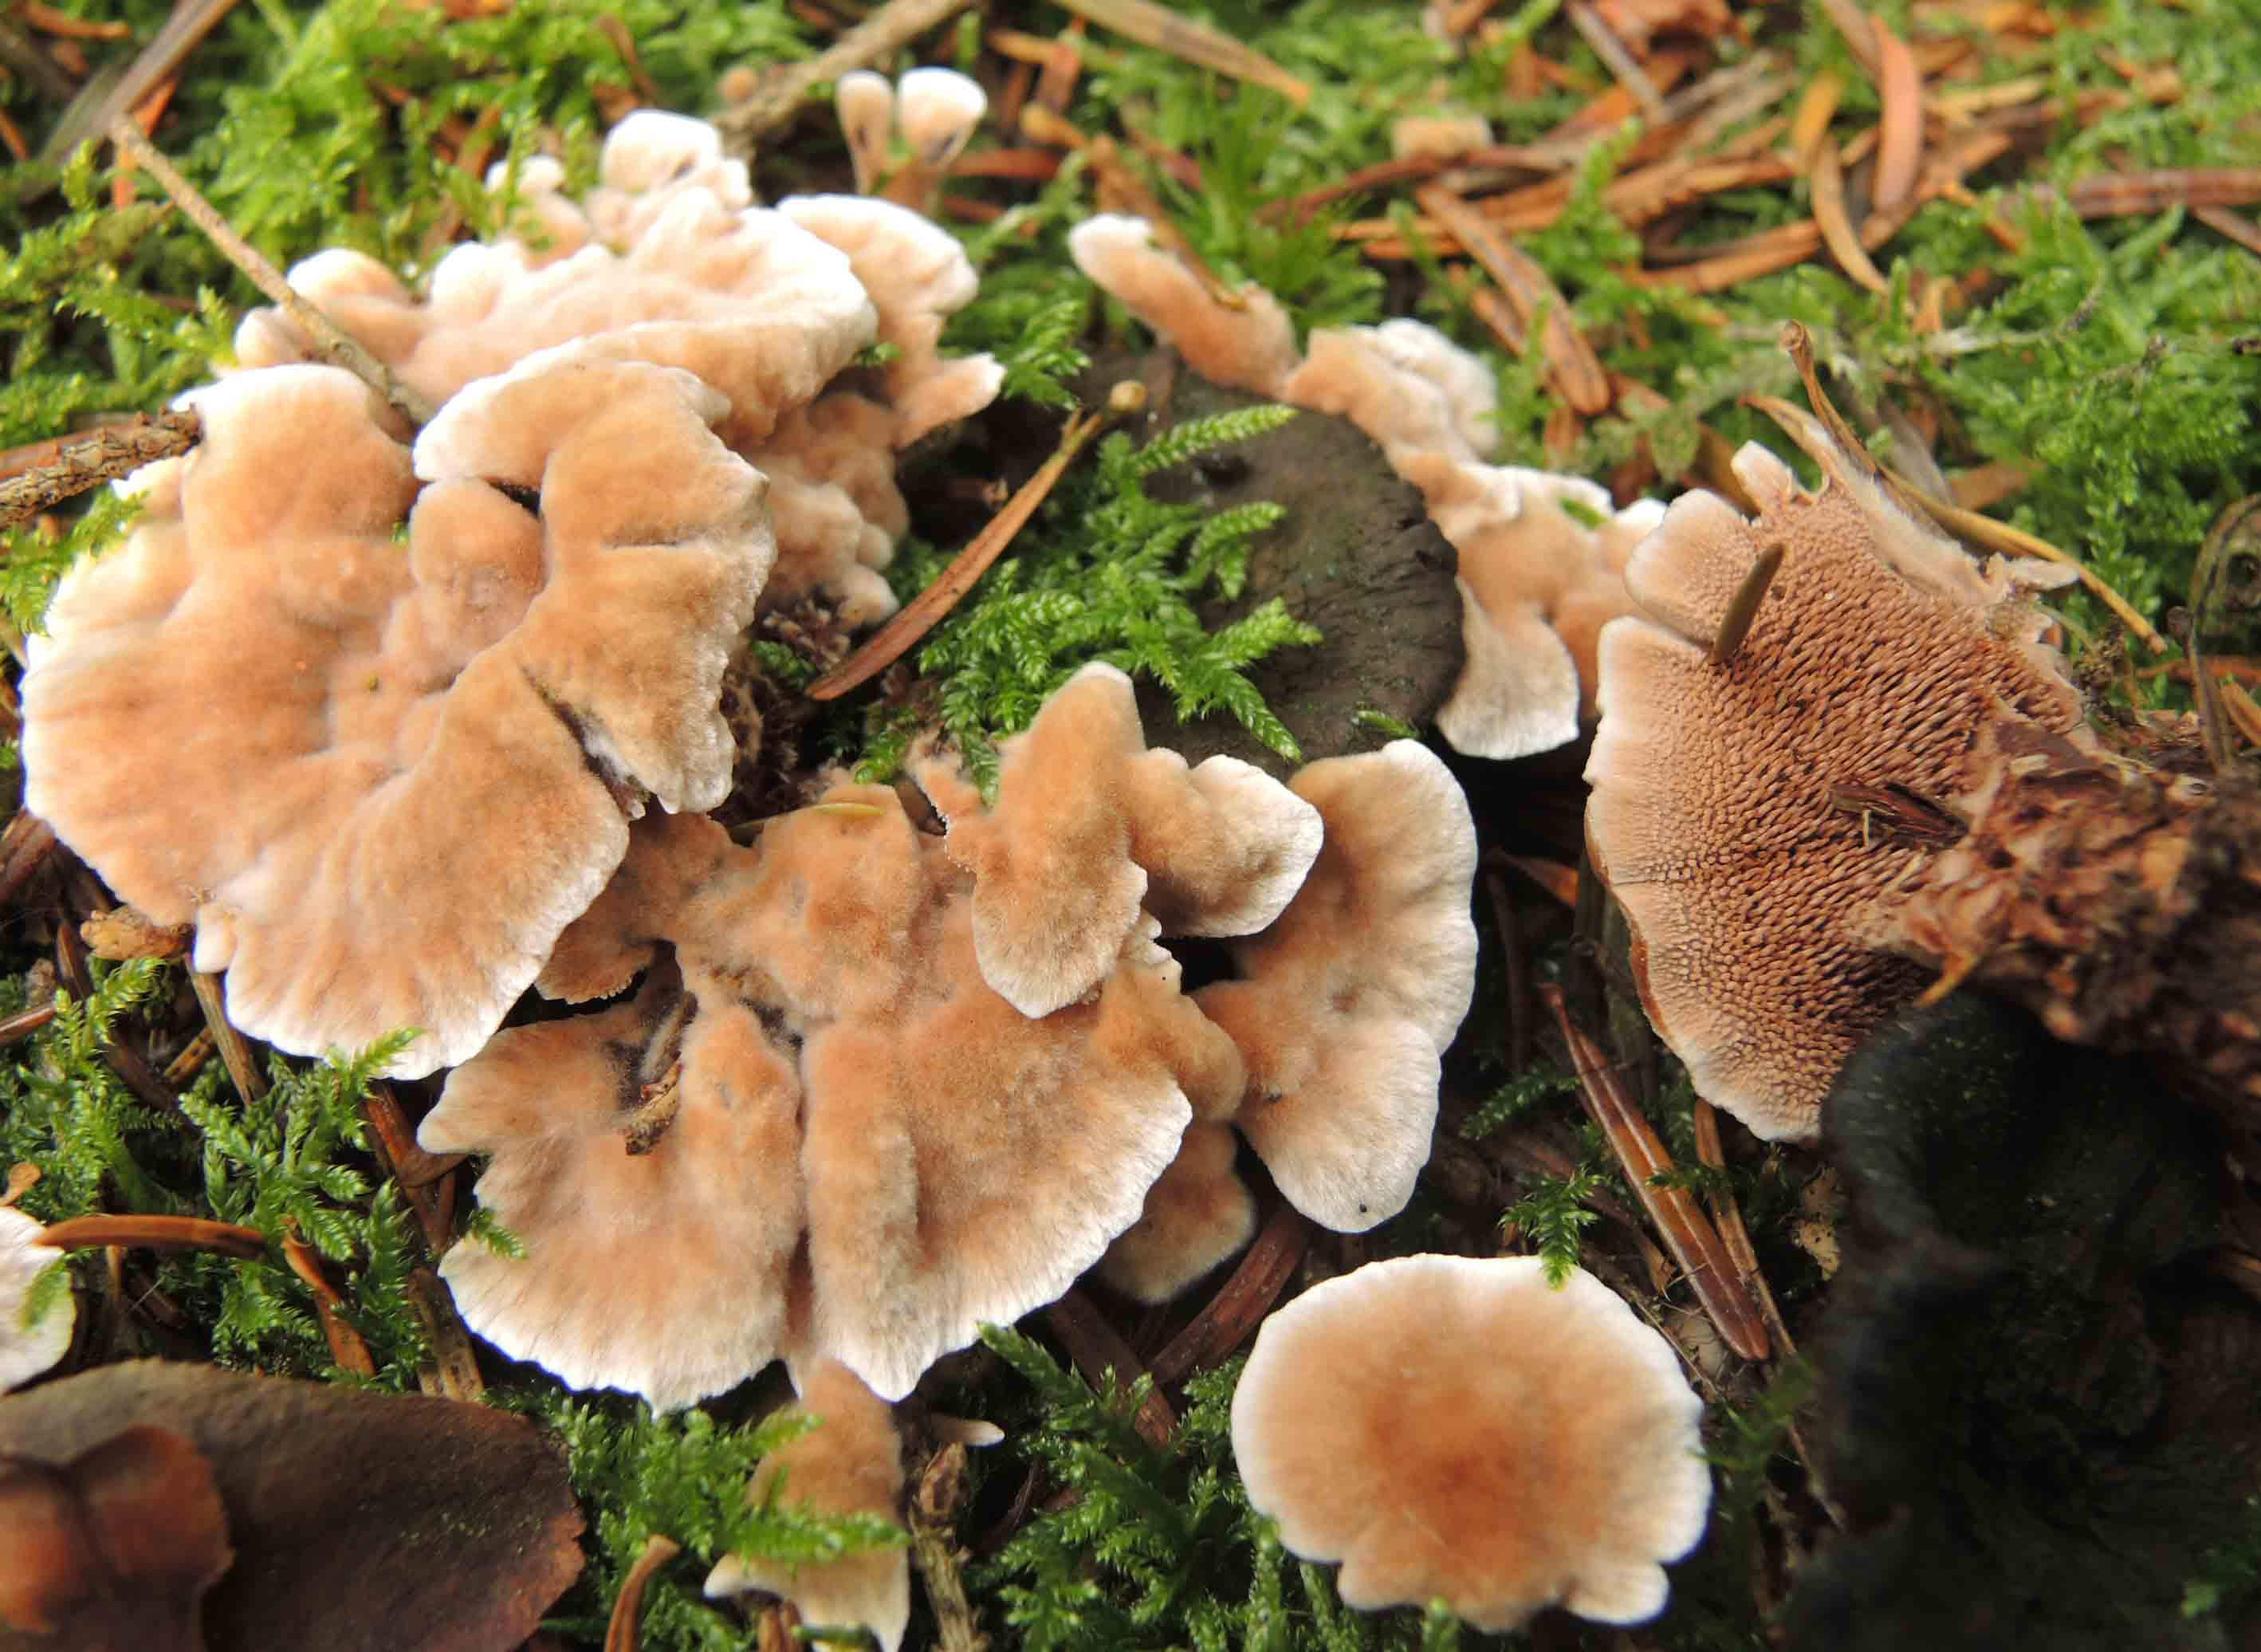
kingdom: Fungi
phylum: Basidiomycota
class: Agaricomycetes
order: Thelephorales
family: Bankeraceae
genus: Hydnellum
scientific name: Hydnellum cumulatum
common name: Rosette tooth
